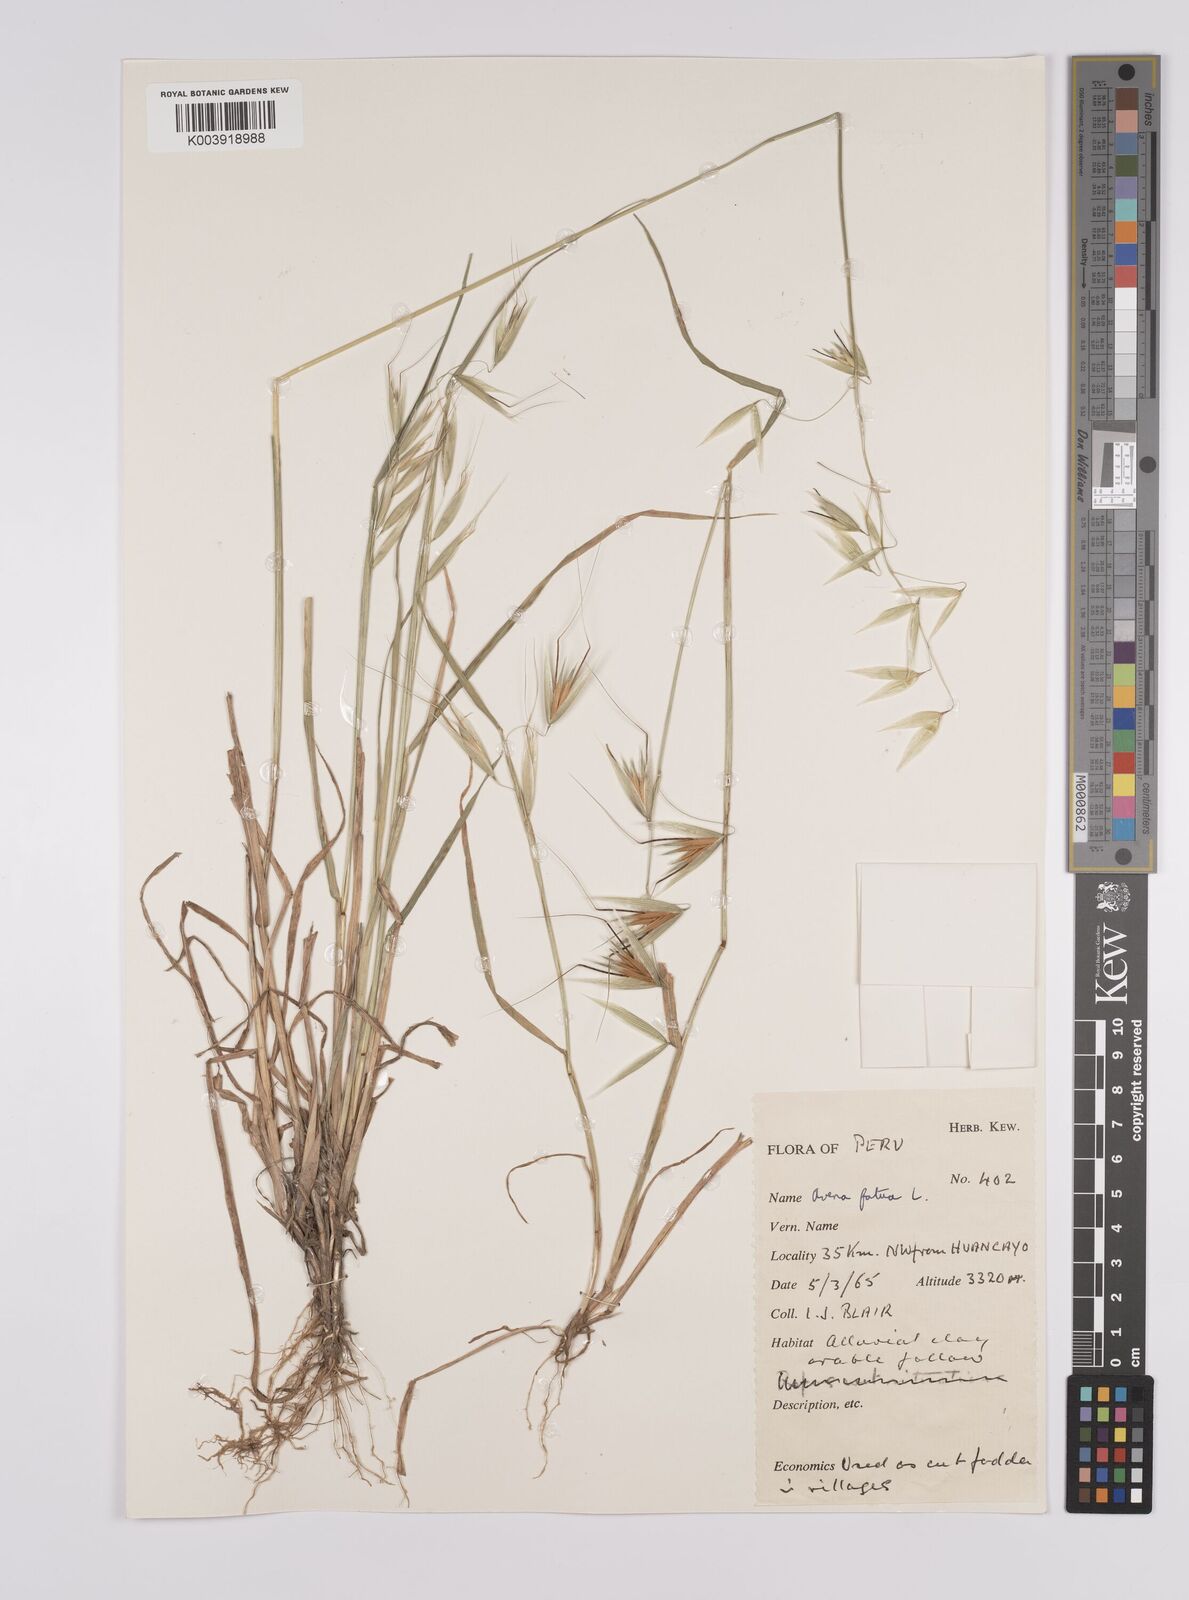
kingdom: Plantae
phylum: Tracheophyta
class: Liliopsida
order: Poales
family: Poaceae
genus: Avena
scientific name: Avena fatua
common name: Wild oat
